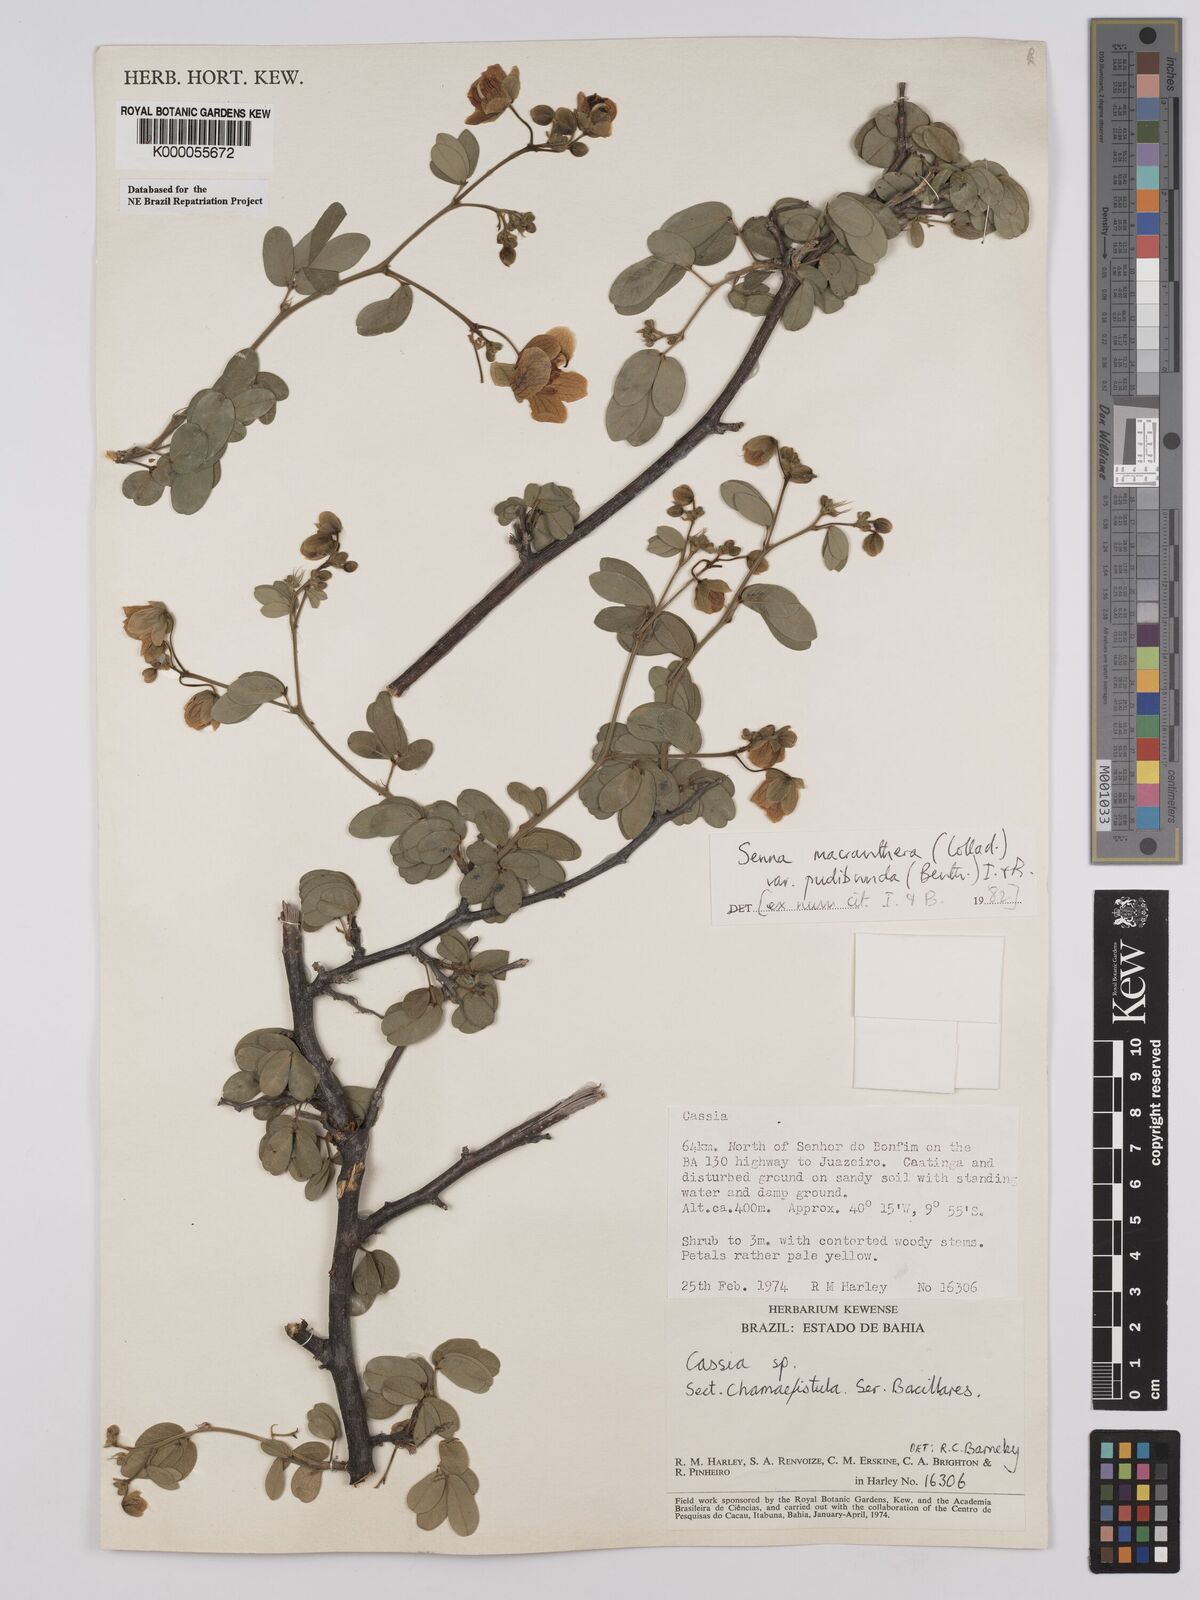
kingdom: Plantae
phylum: Tracheophyta
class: Magnoliopsida
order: Fabales
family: Fabaceae
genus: Senna
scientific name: Senna macranthera
